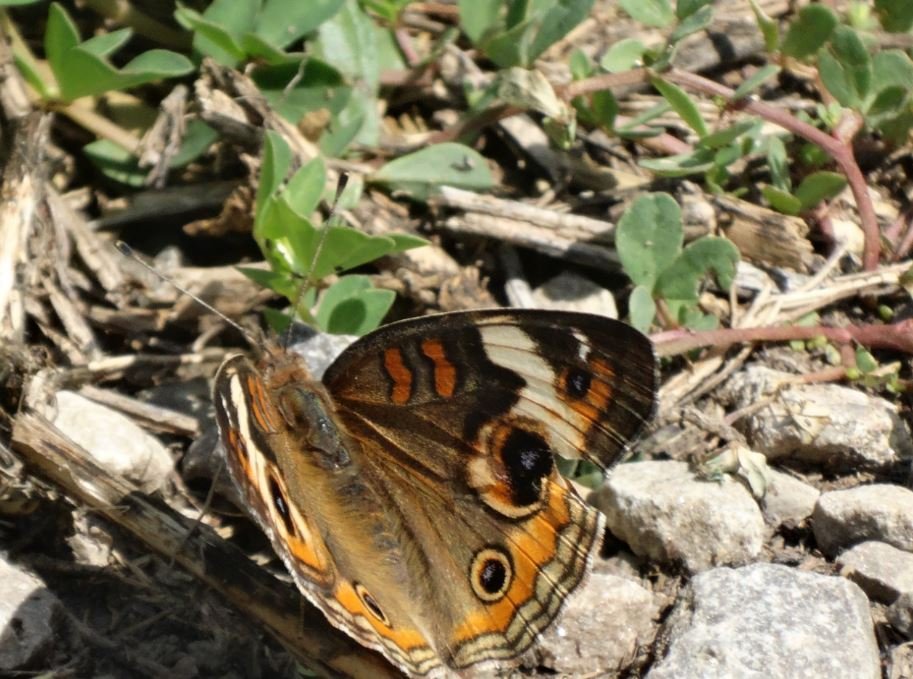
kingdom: Animalia
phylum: Arthropoda
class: Insecta
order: Lepidoptera
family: Nymphalidae
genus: Junonia
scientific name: Junonia coenia
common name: Common Buckeye
